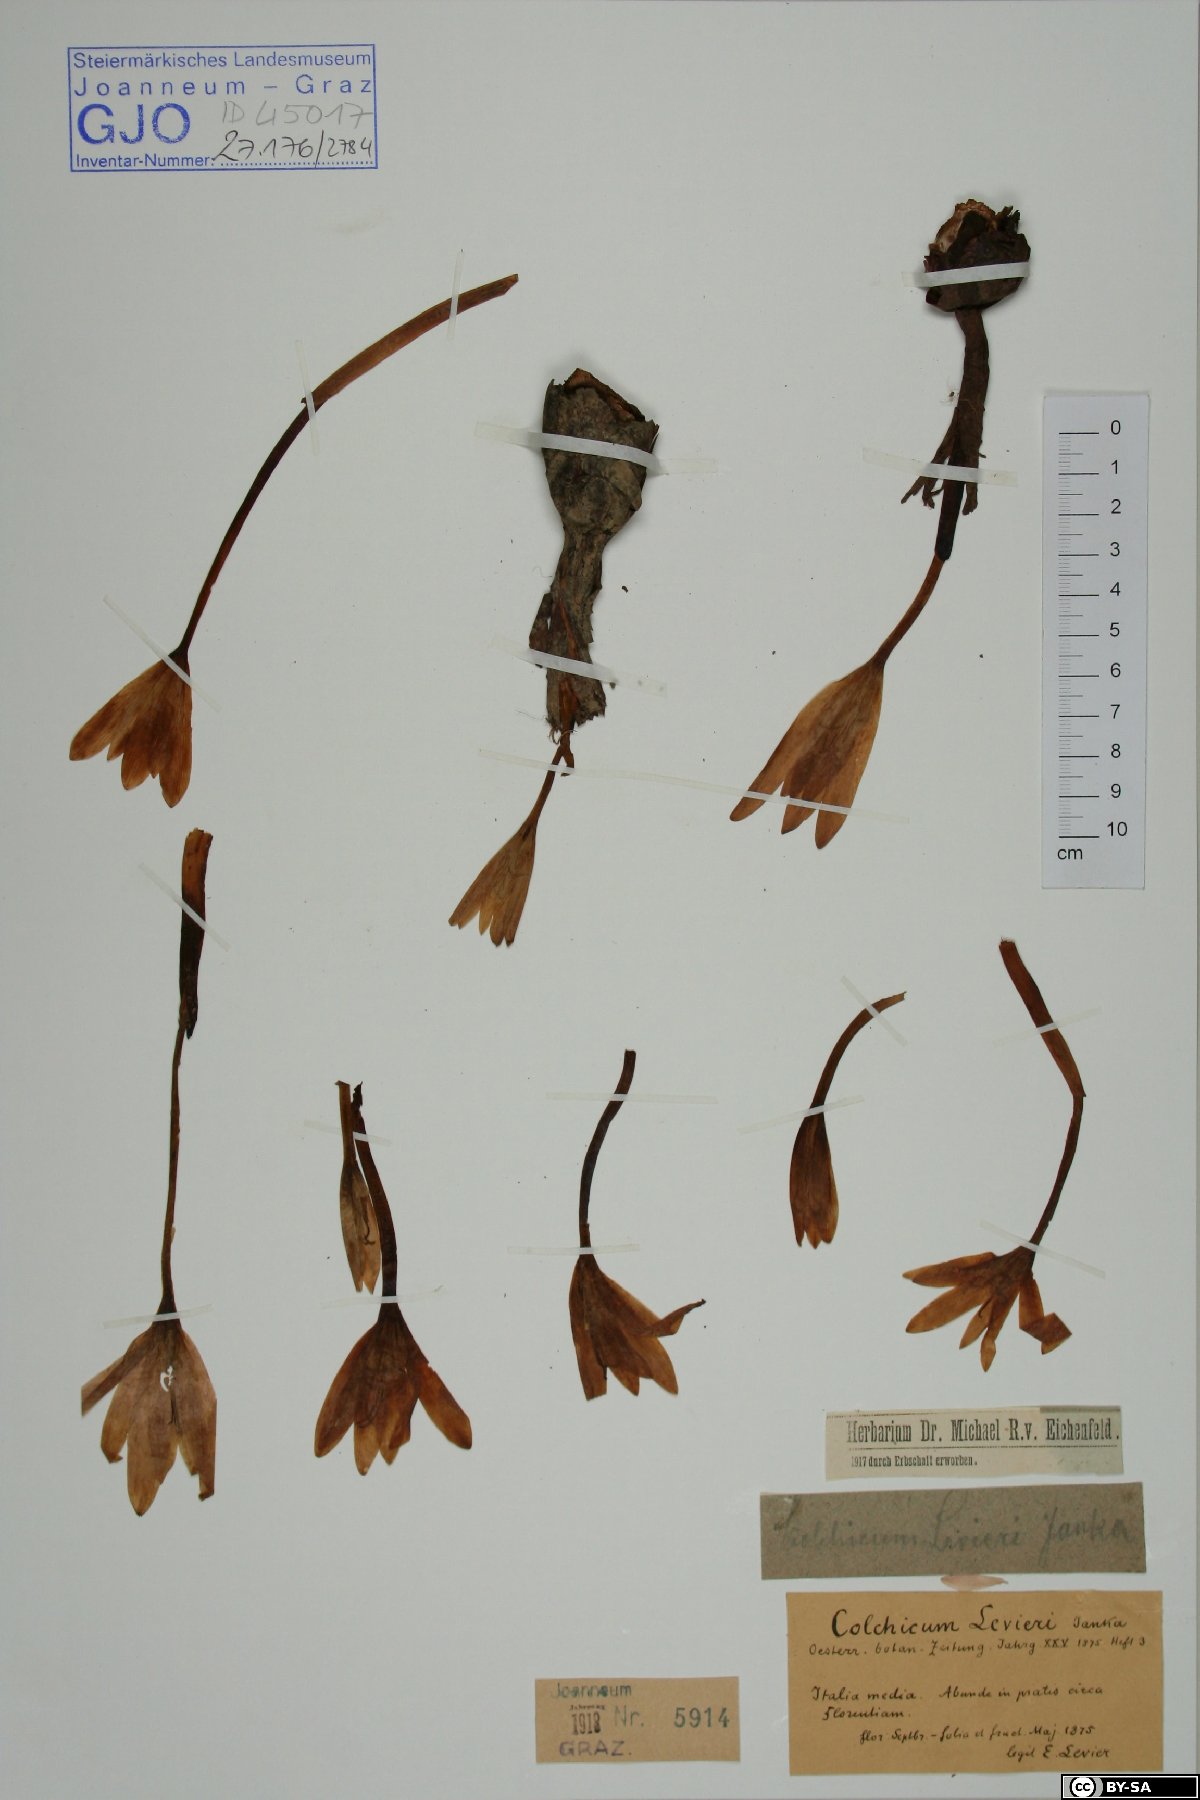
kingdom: Plantae
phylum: Tracheophyta
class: Liliopsida
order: Liliales
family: Colchicaceae
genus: Colchicum
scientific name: Colchicum lusitanum
